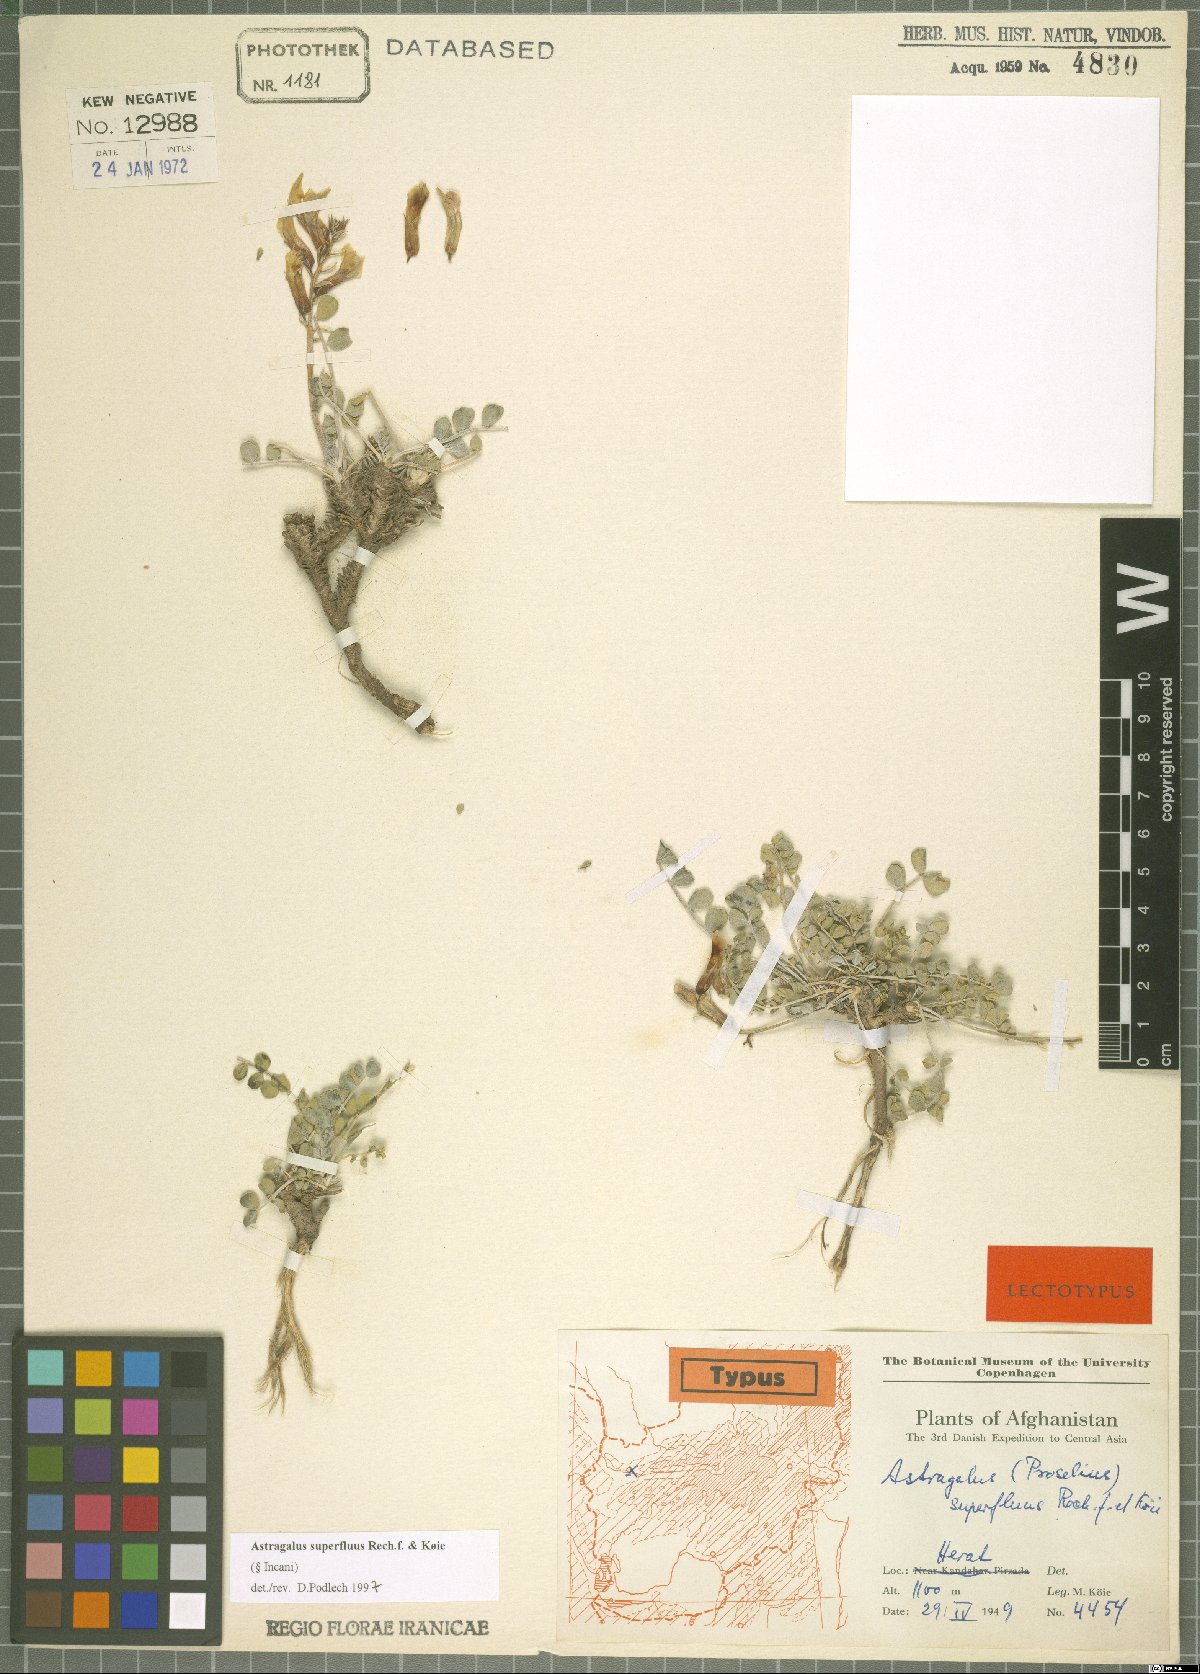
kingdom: Plantae
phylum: Tracheophyta
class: Magnoliopsida
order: Fabales
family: Fabaceae
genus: Astragalus
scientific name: Astragalus superfluus
